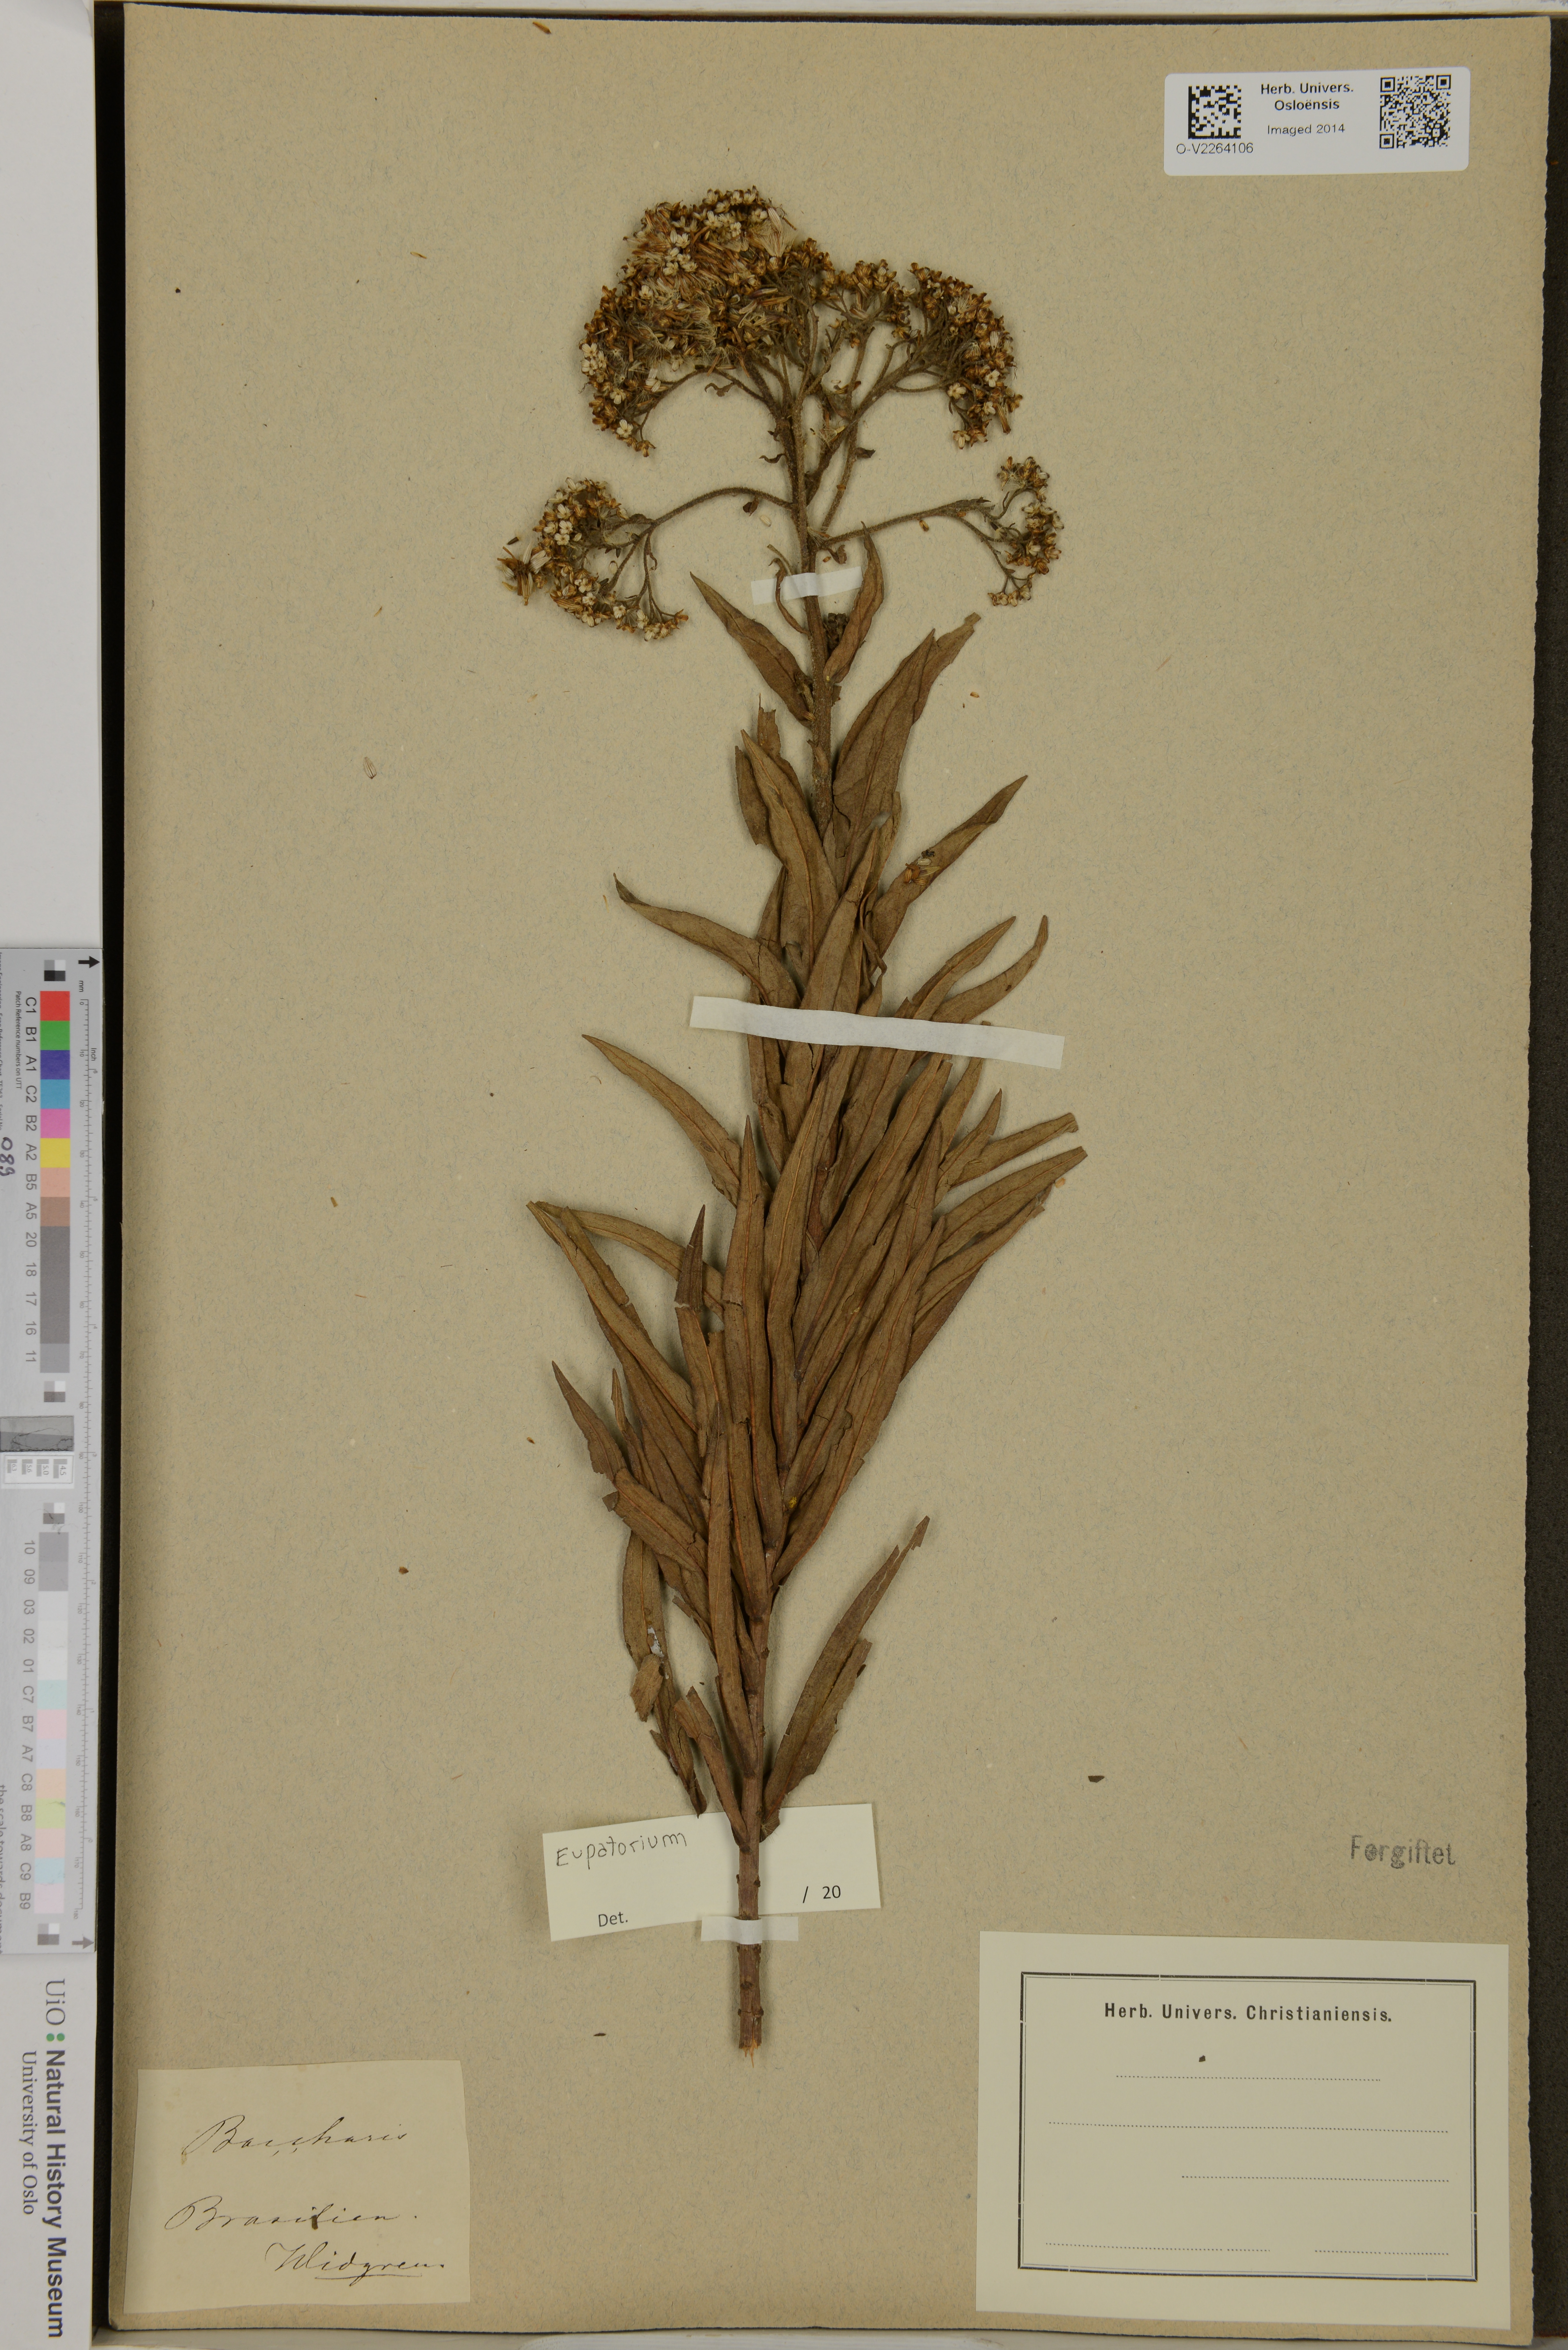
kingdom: Plantae
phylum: Tracheophyta
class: Magnoliopsida
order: Asterales
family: Asteraceae
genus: Eupatorium
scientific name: Eupatorium
